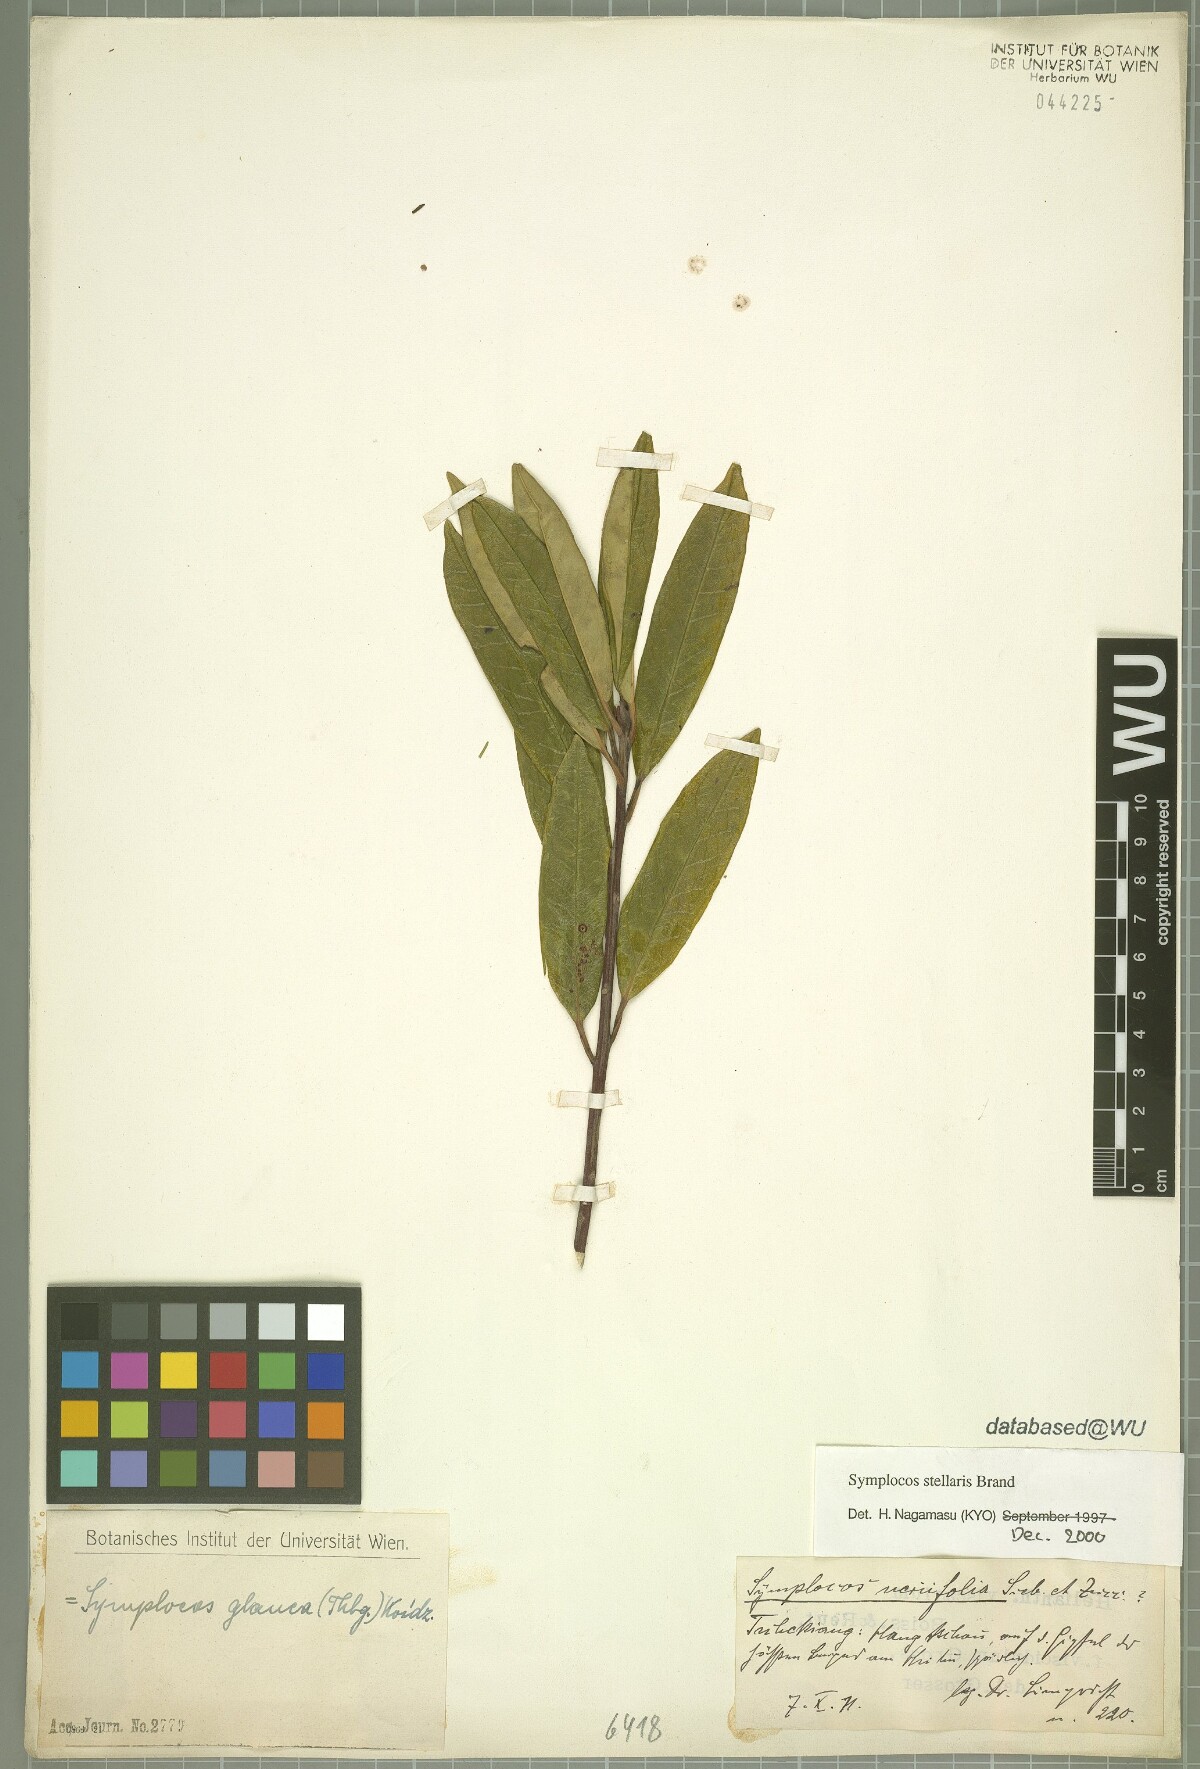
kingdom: Plantae
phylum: Tracheophyta
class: Magnoliopsida
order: Ericales
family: Symplocaceae
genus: Symplocos
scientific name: Symplocos stellaris
